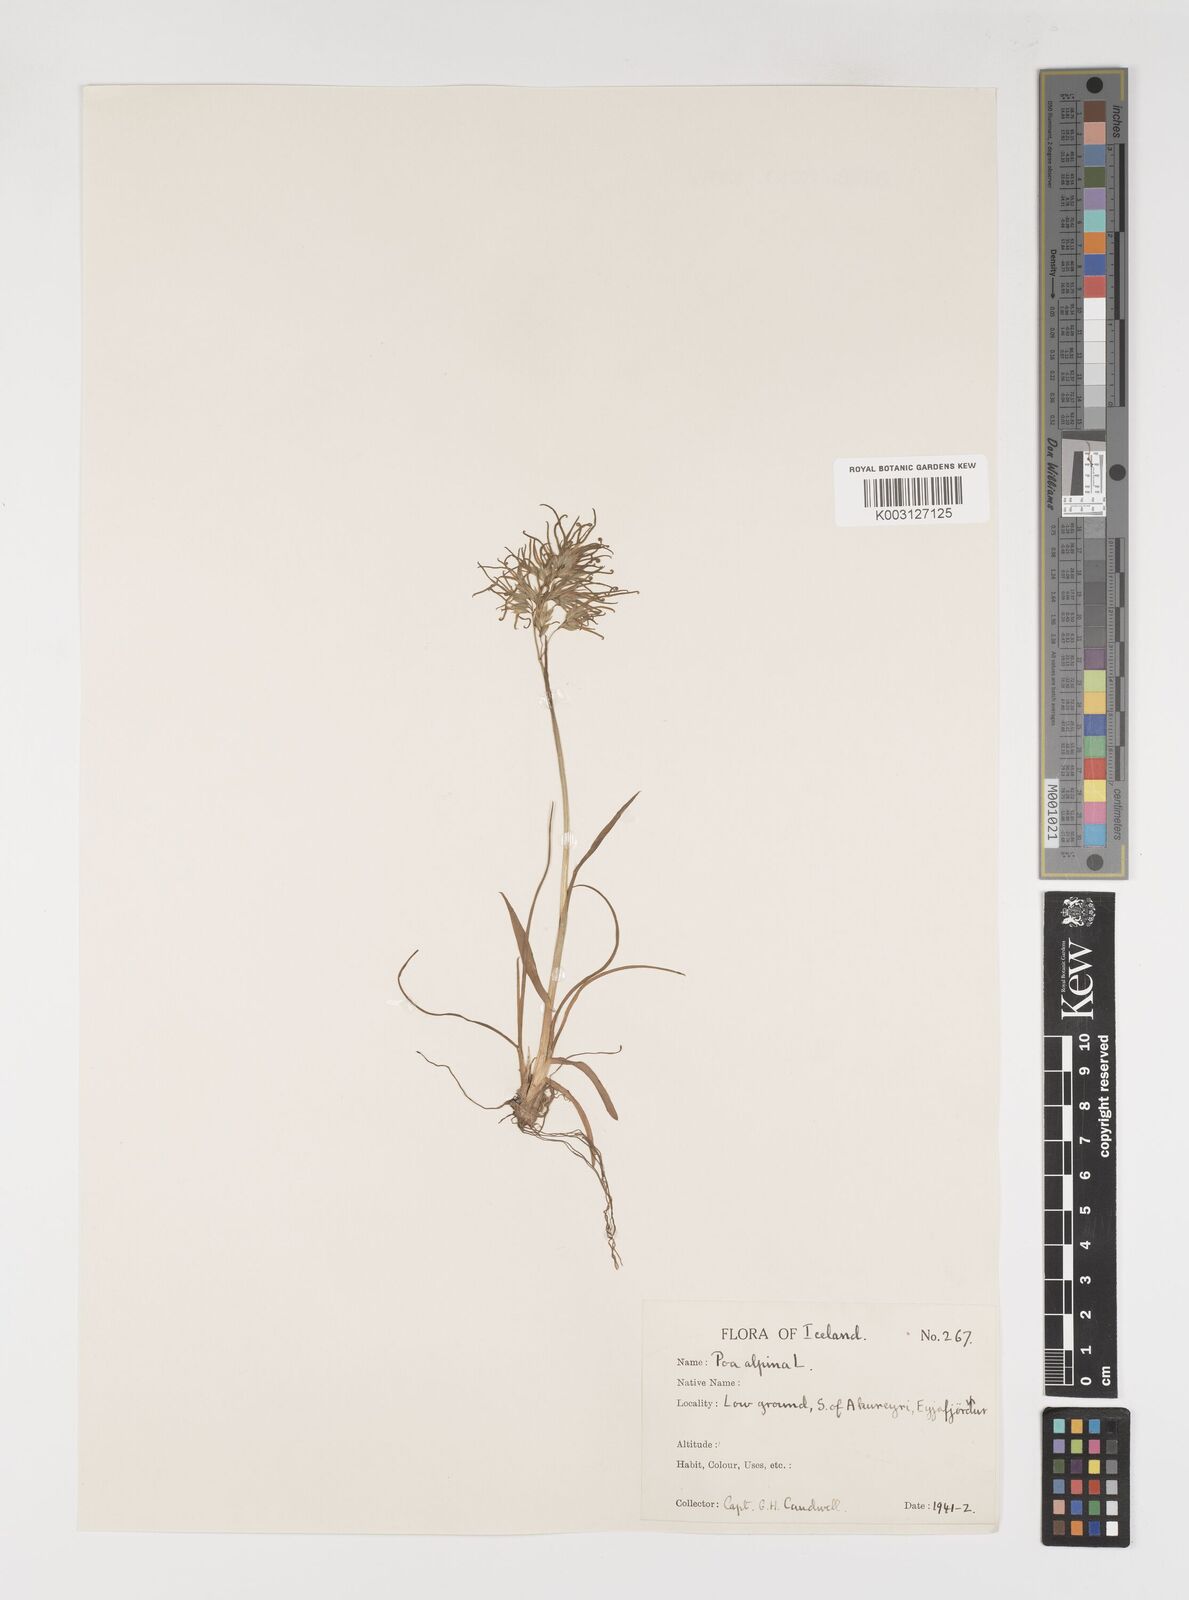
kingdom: Plantae
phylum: Tracheophyta
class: Liliopsida
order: Poales
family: Poaceae
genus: Poa
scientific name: Poa alpina
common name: Alpine bluegrass
